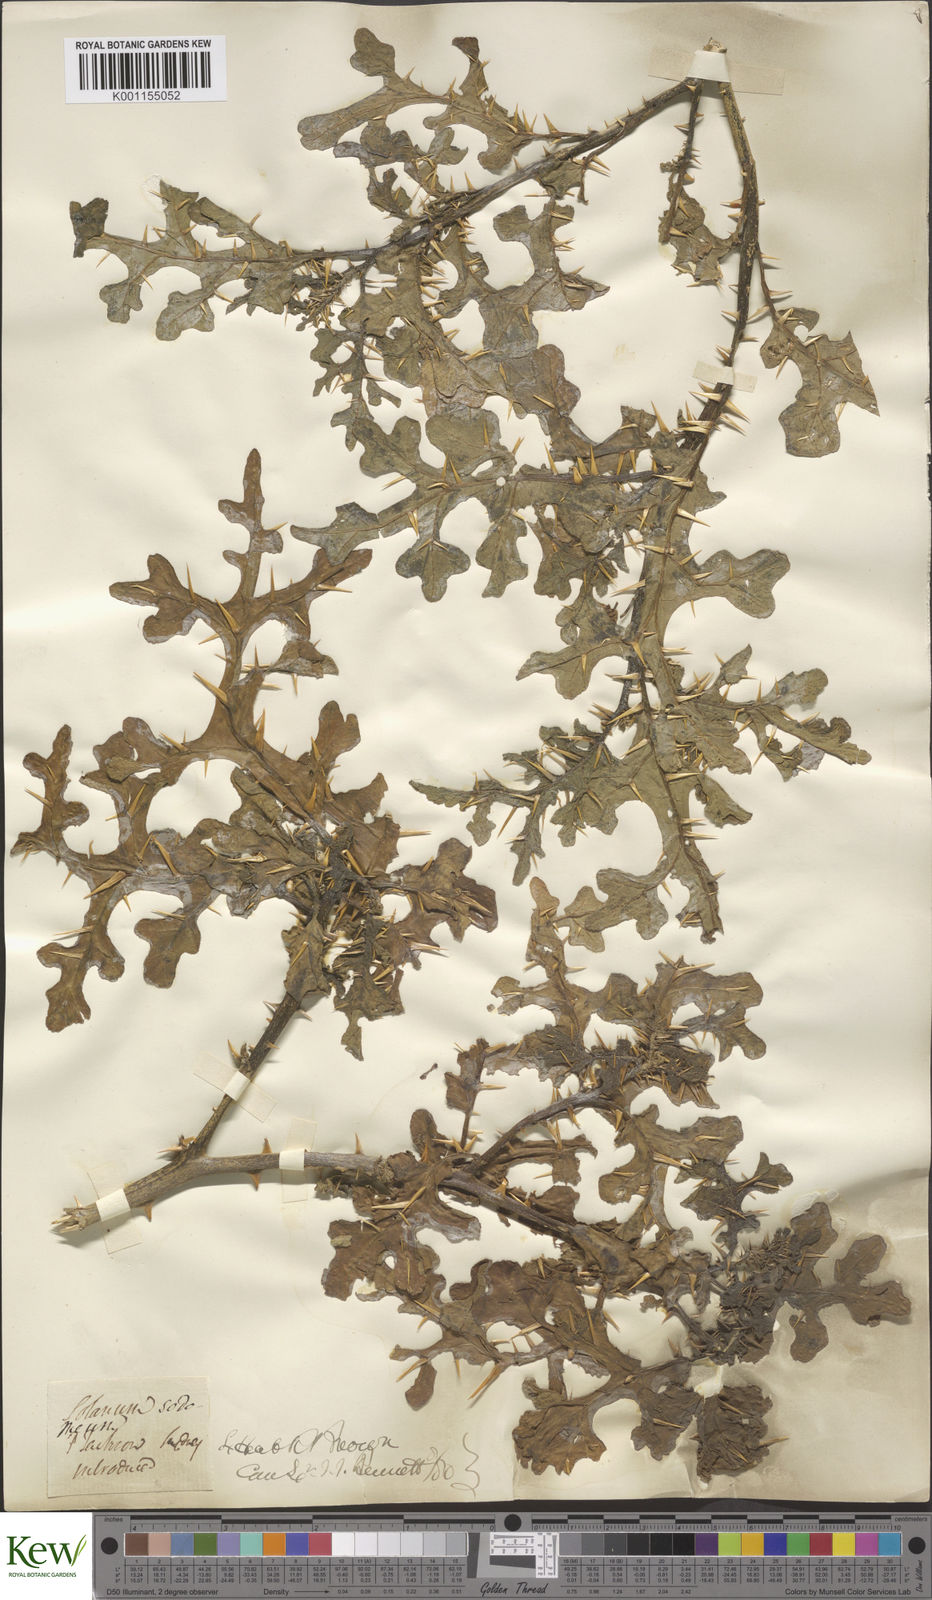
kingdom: Plantae
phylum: Tracheophyta
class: Magnoliopsida
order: Solanales
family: Solanaceae
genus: Solanum
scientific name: Solanum anguivi
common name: Forest bitterberry
